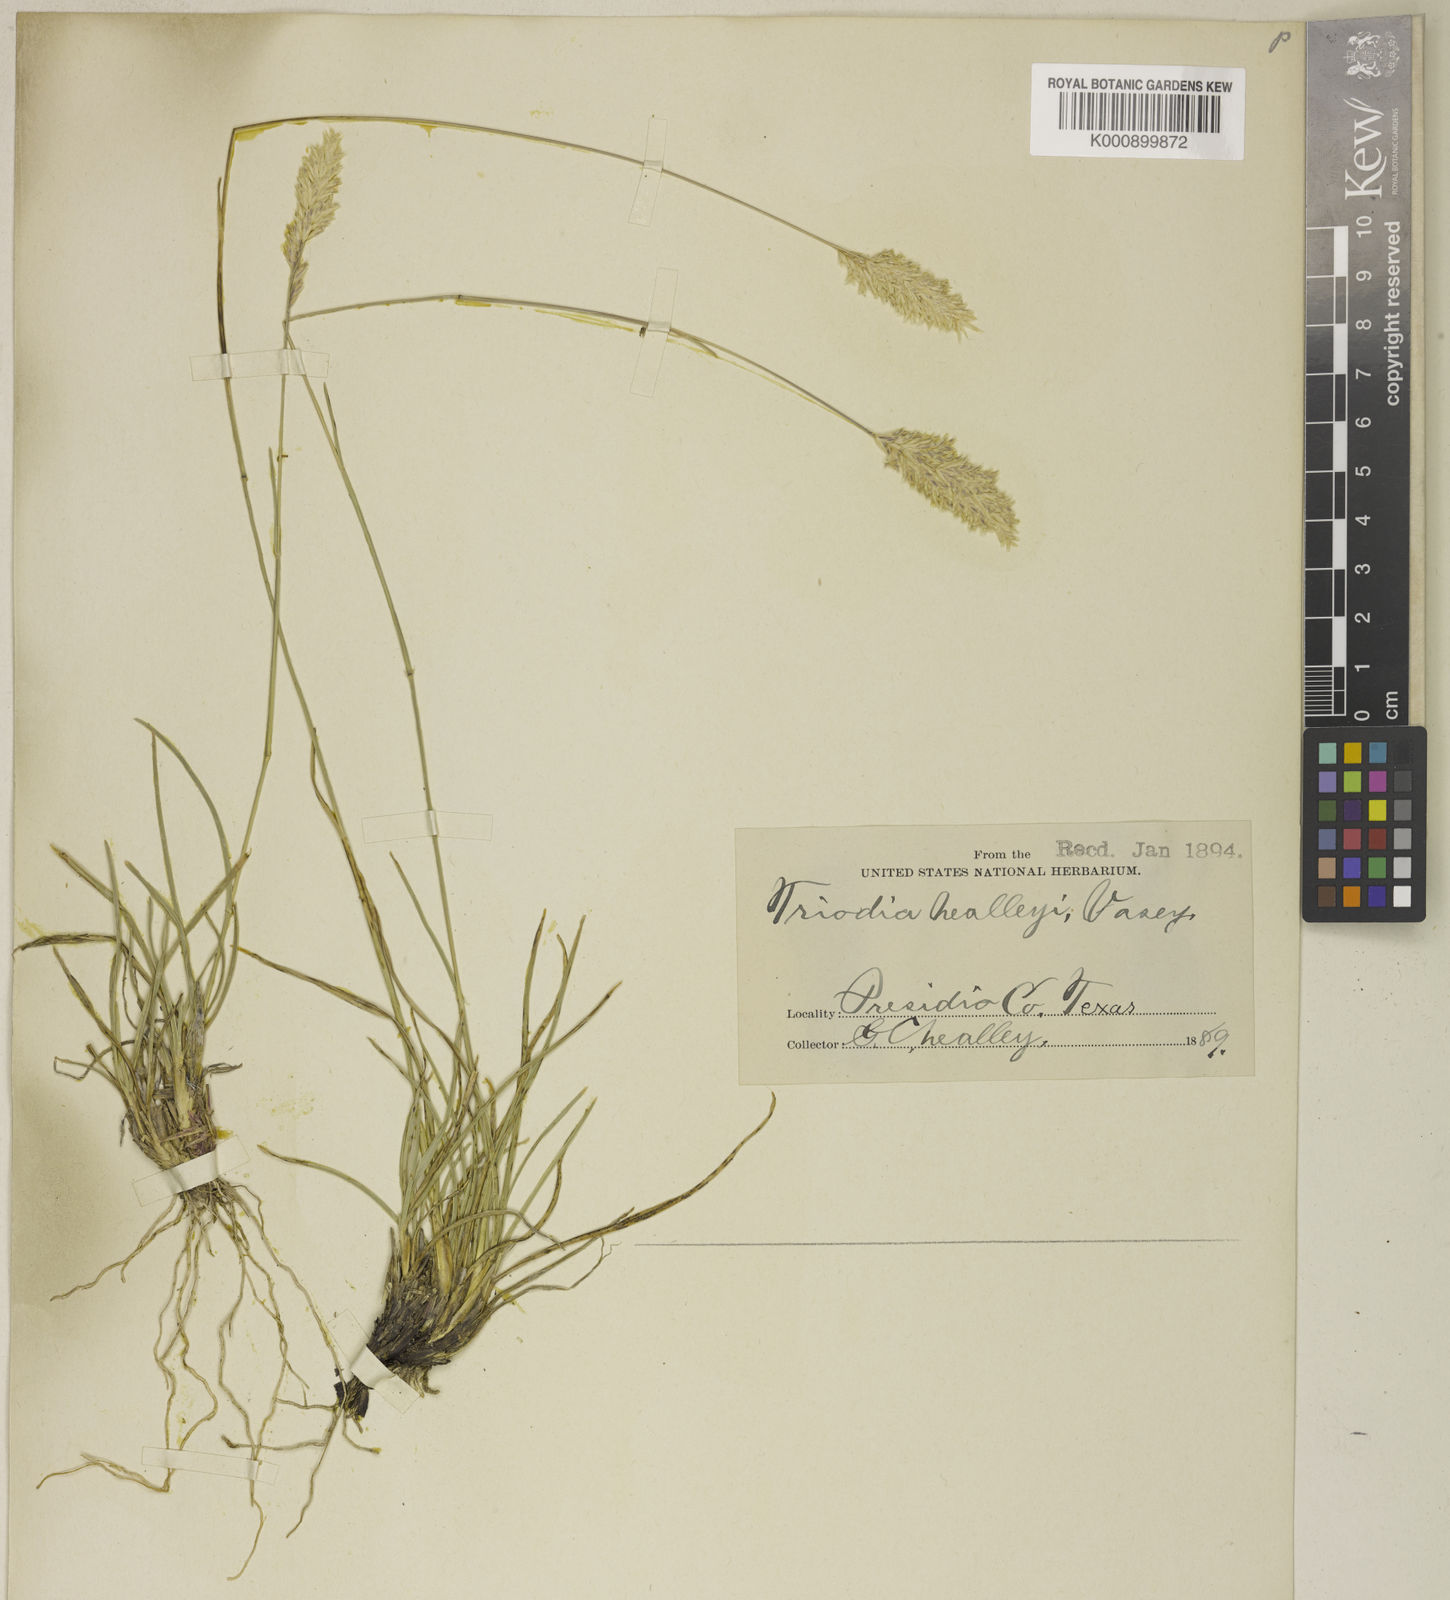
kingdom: Plantae
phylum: Tracheophyta
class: Liliopsida
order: Poales
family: Poaceae
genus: Erioneuron
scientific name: Erioneuron avenaceum
